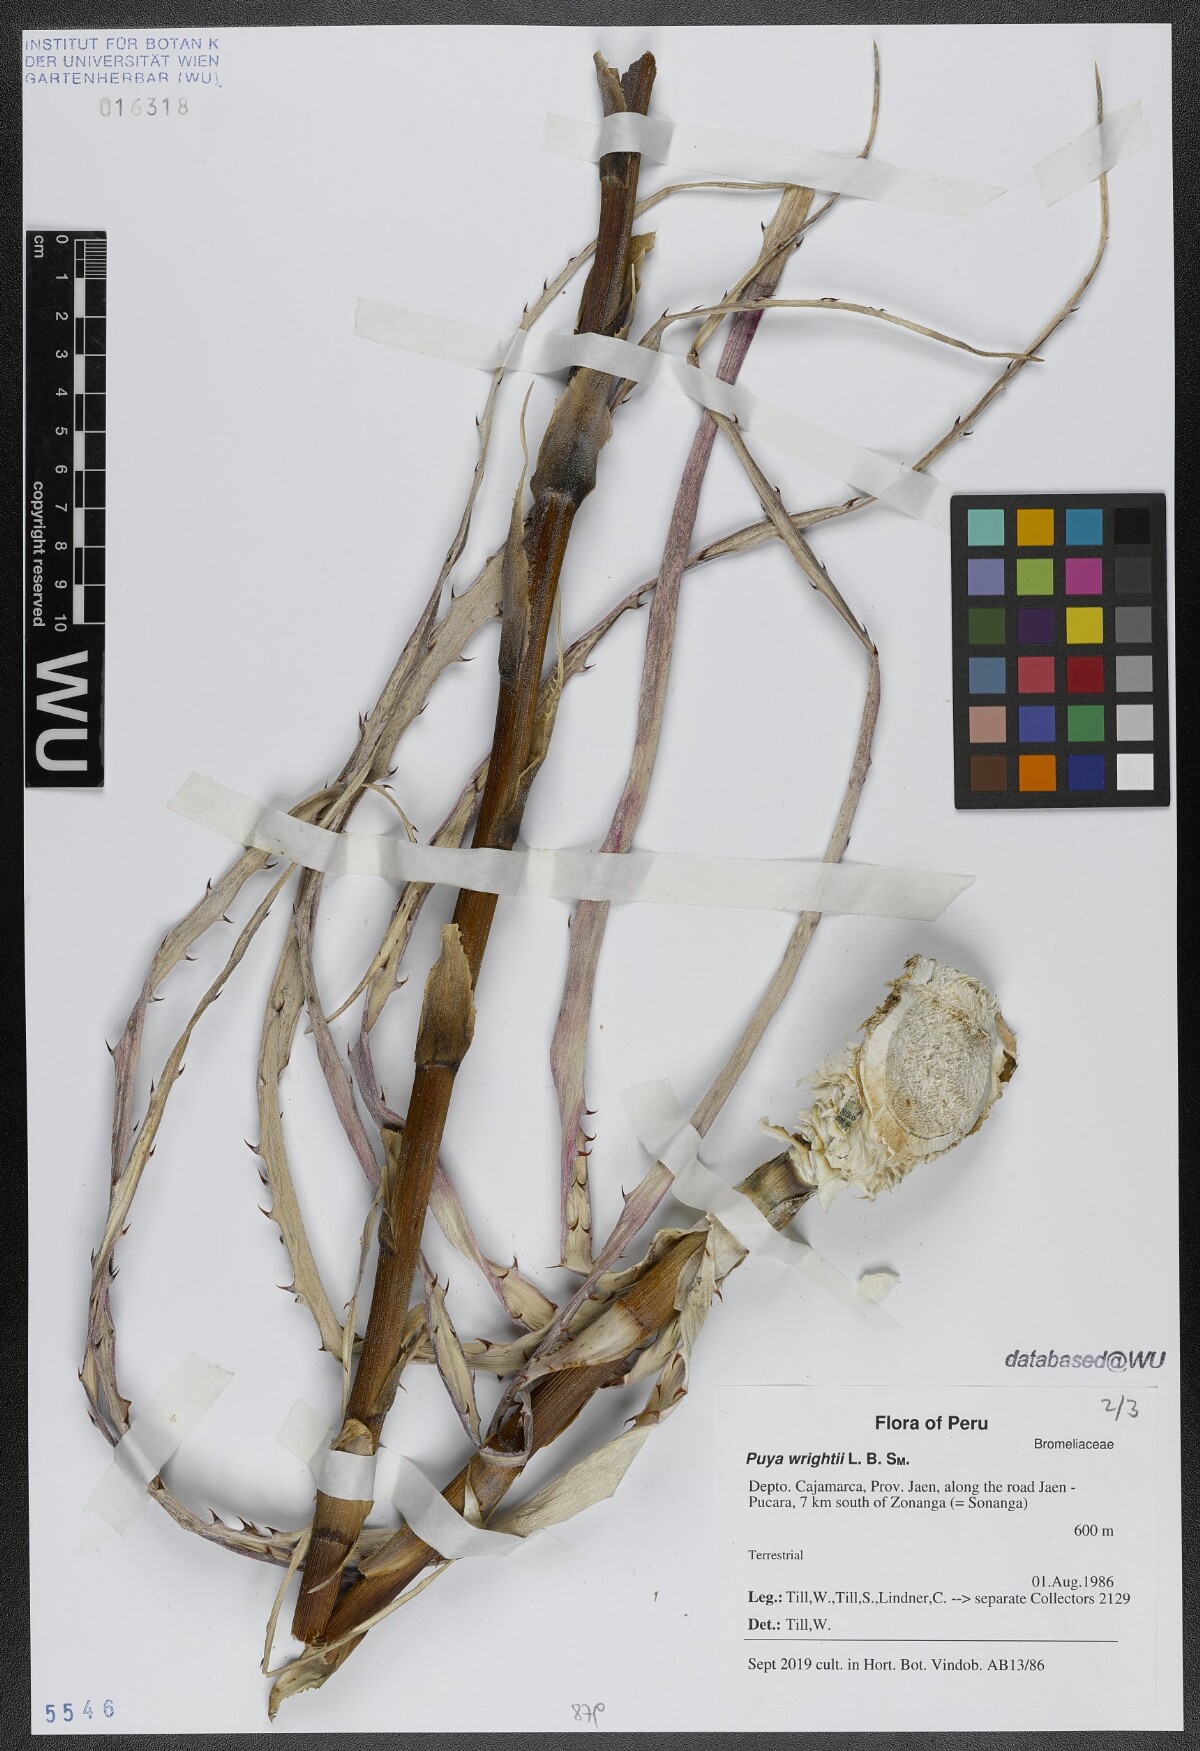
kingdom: Plantae
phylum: Tracheophyta
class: Liliopsida
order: Poales
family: Bromeliaceae
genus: Puya
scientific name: Puya wrightii
